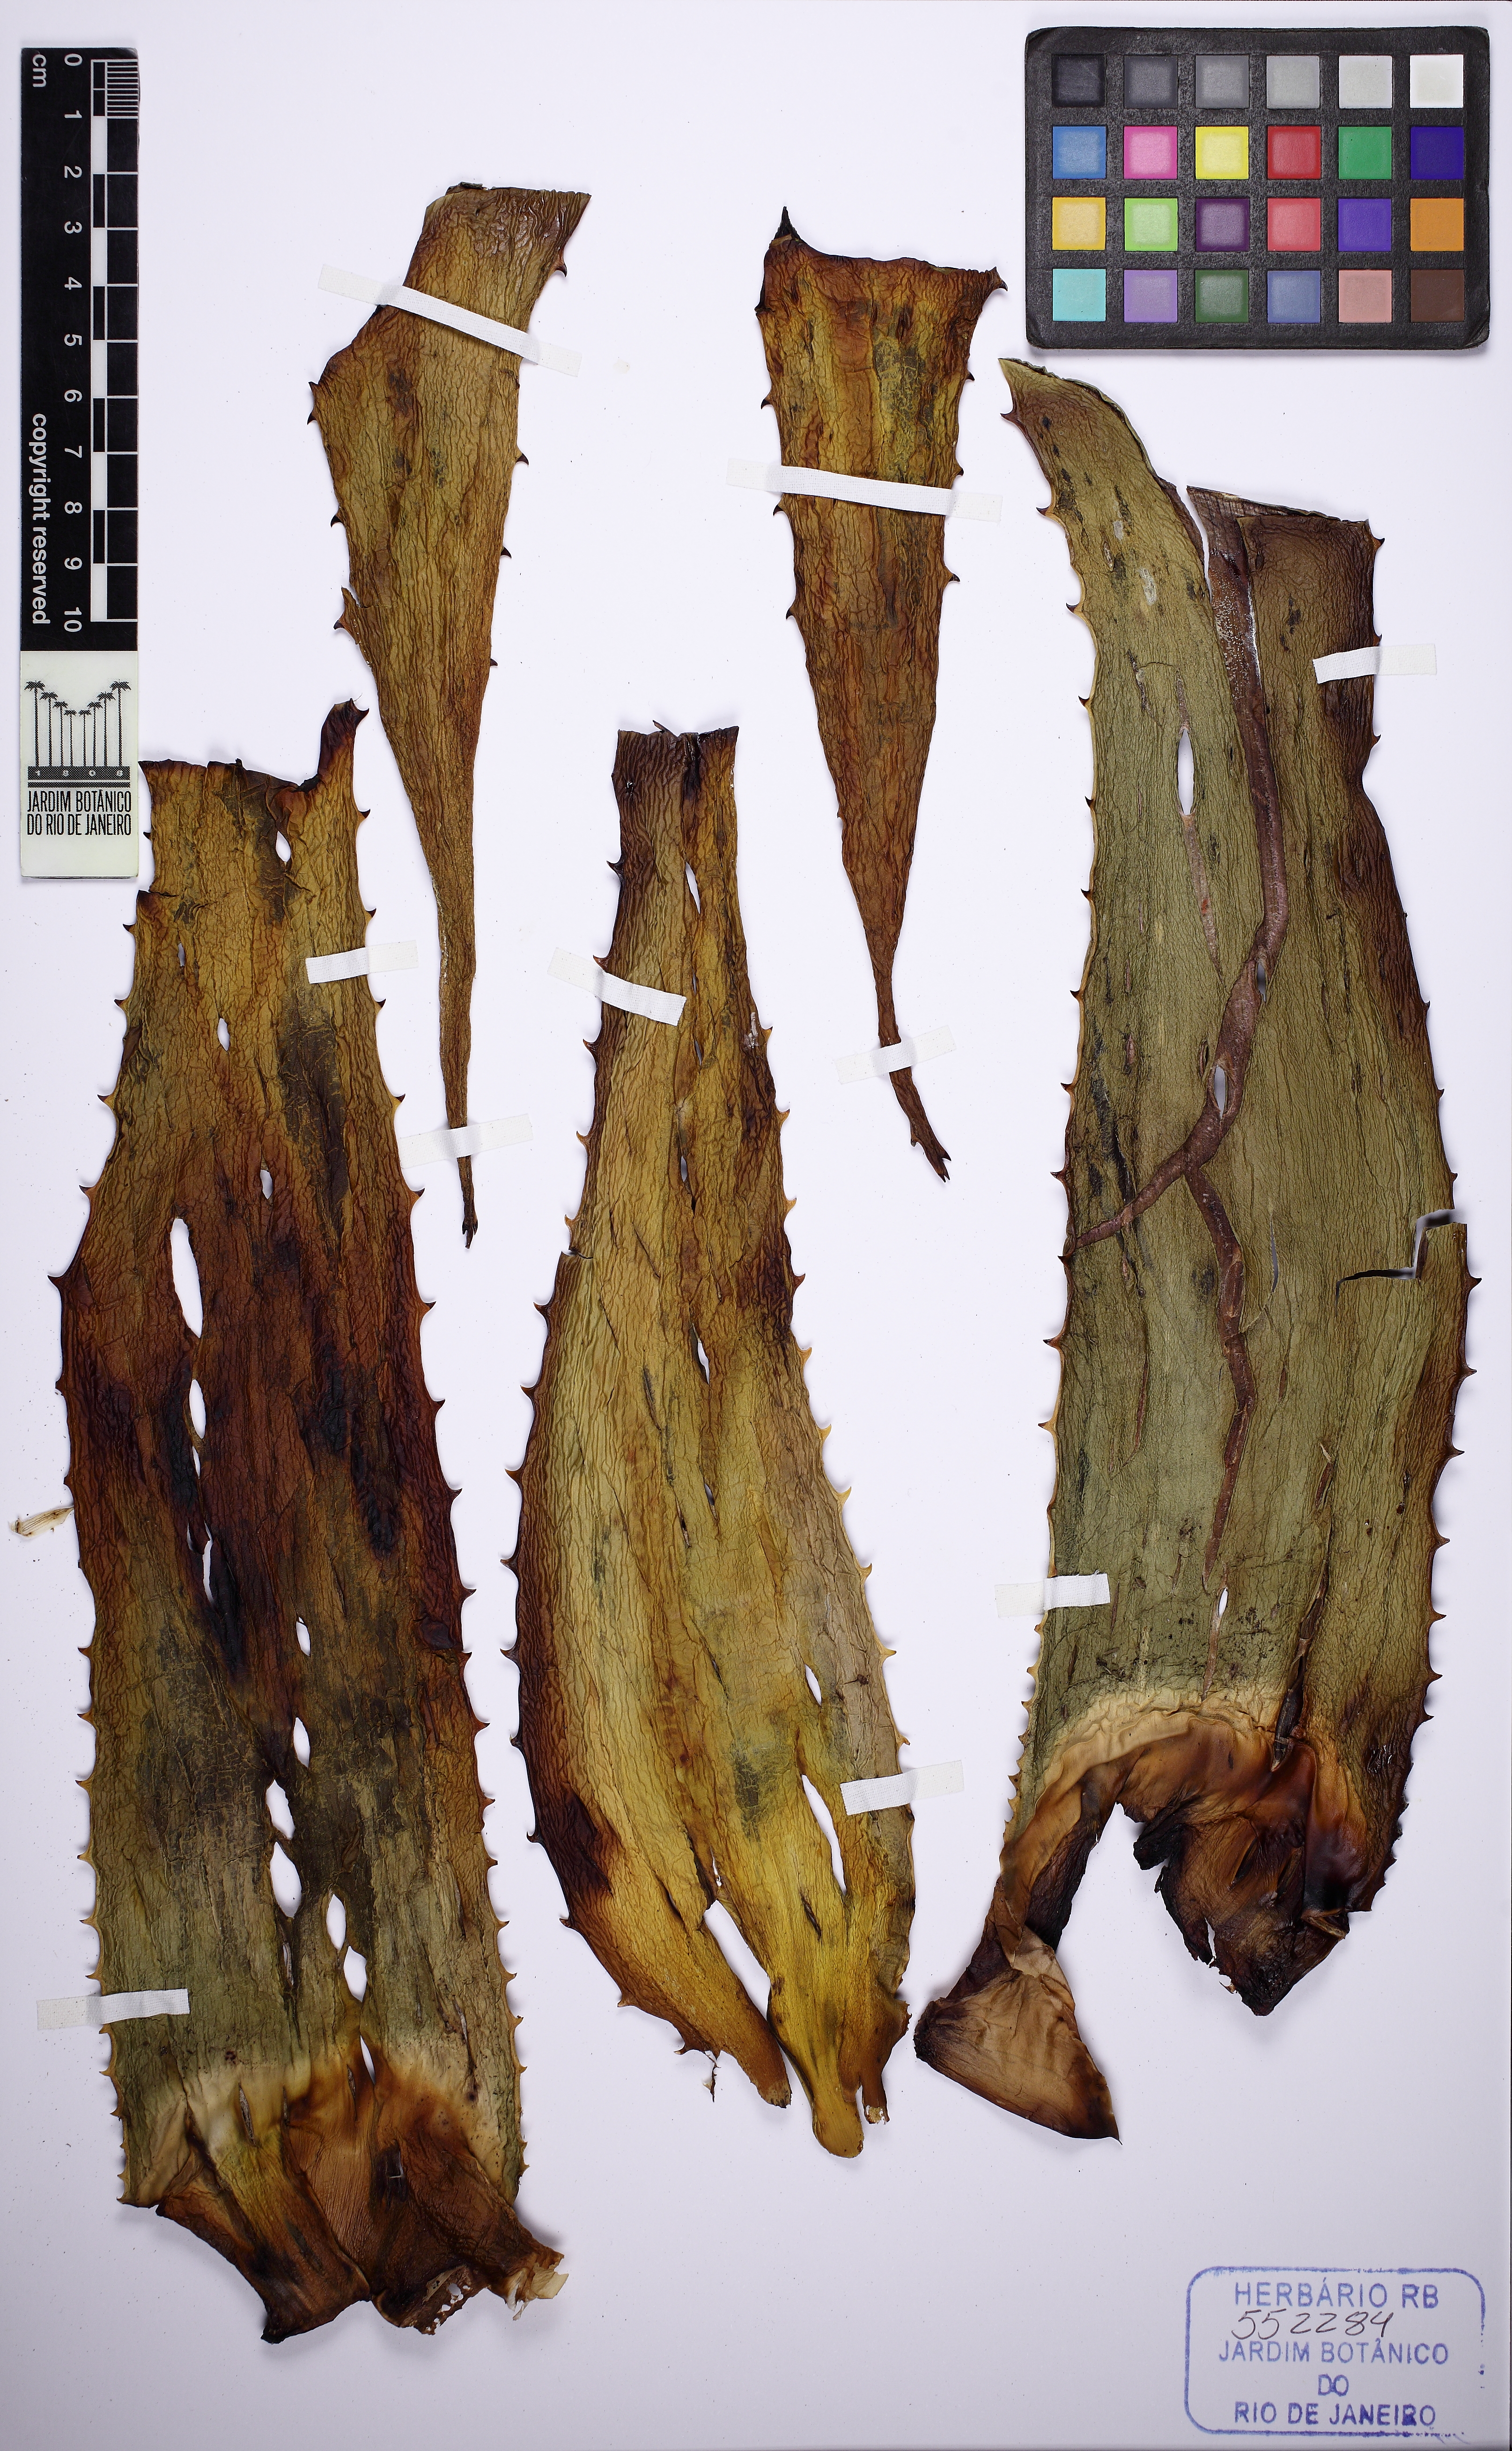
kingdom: Plantae
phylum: Tracheophyta
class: Liliopsida
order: Asparagales
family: Asphodelaceae
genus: Aloe
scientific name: Aloe
